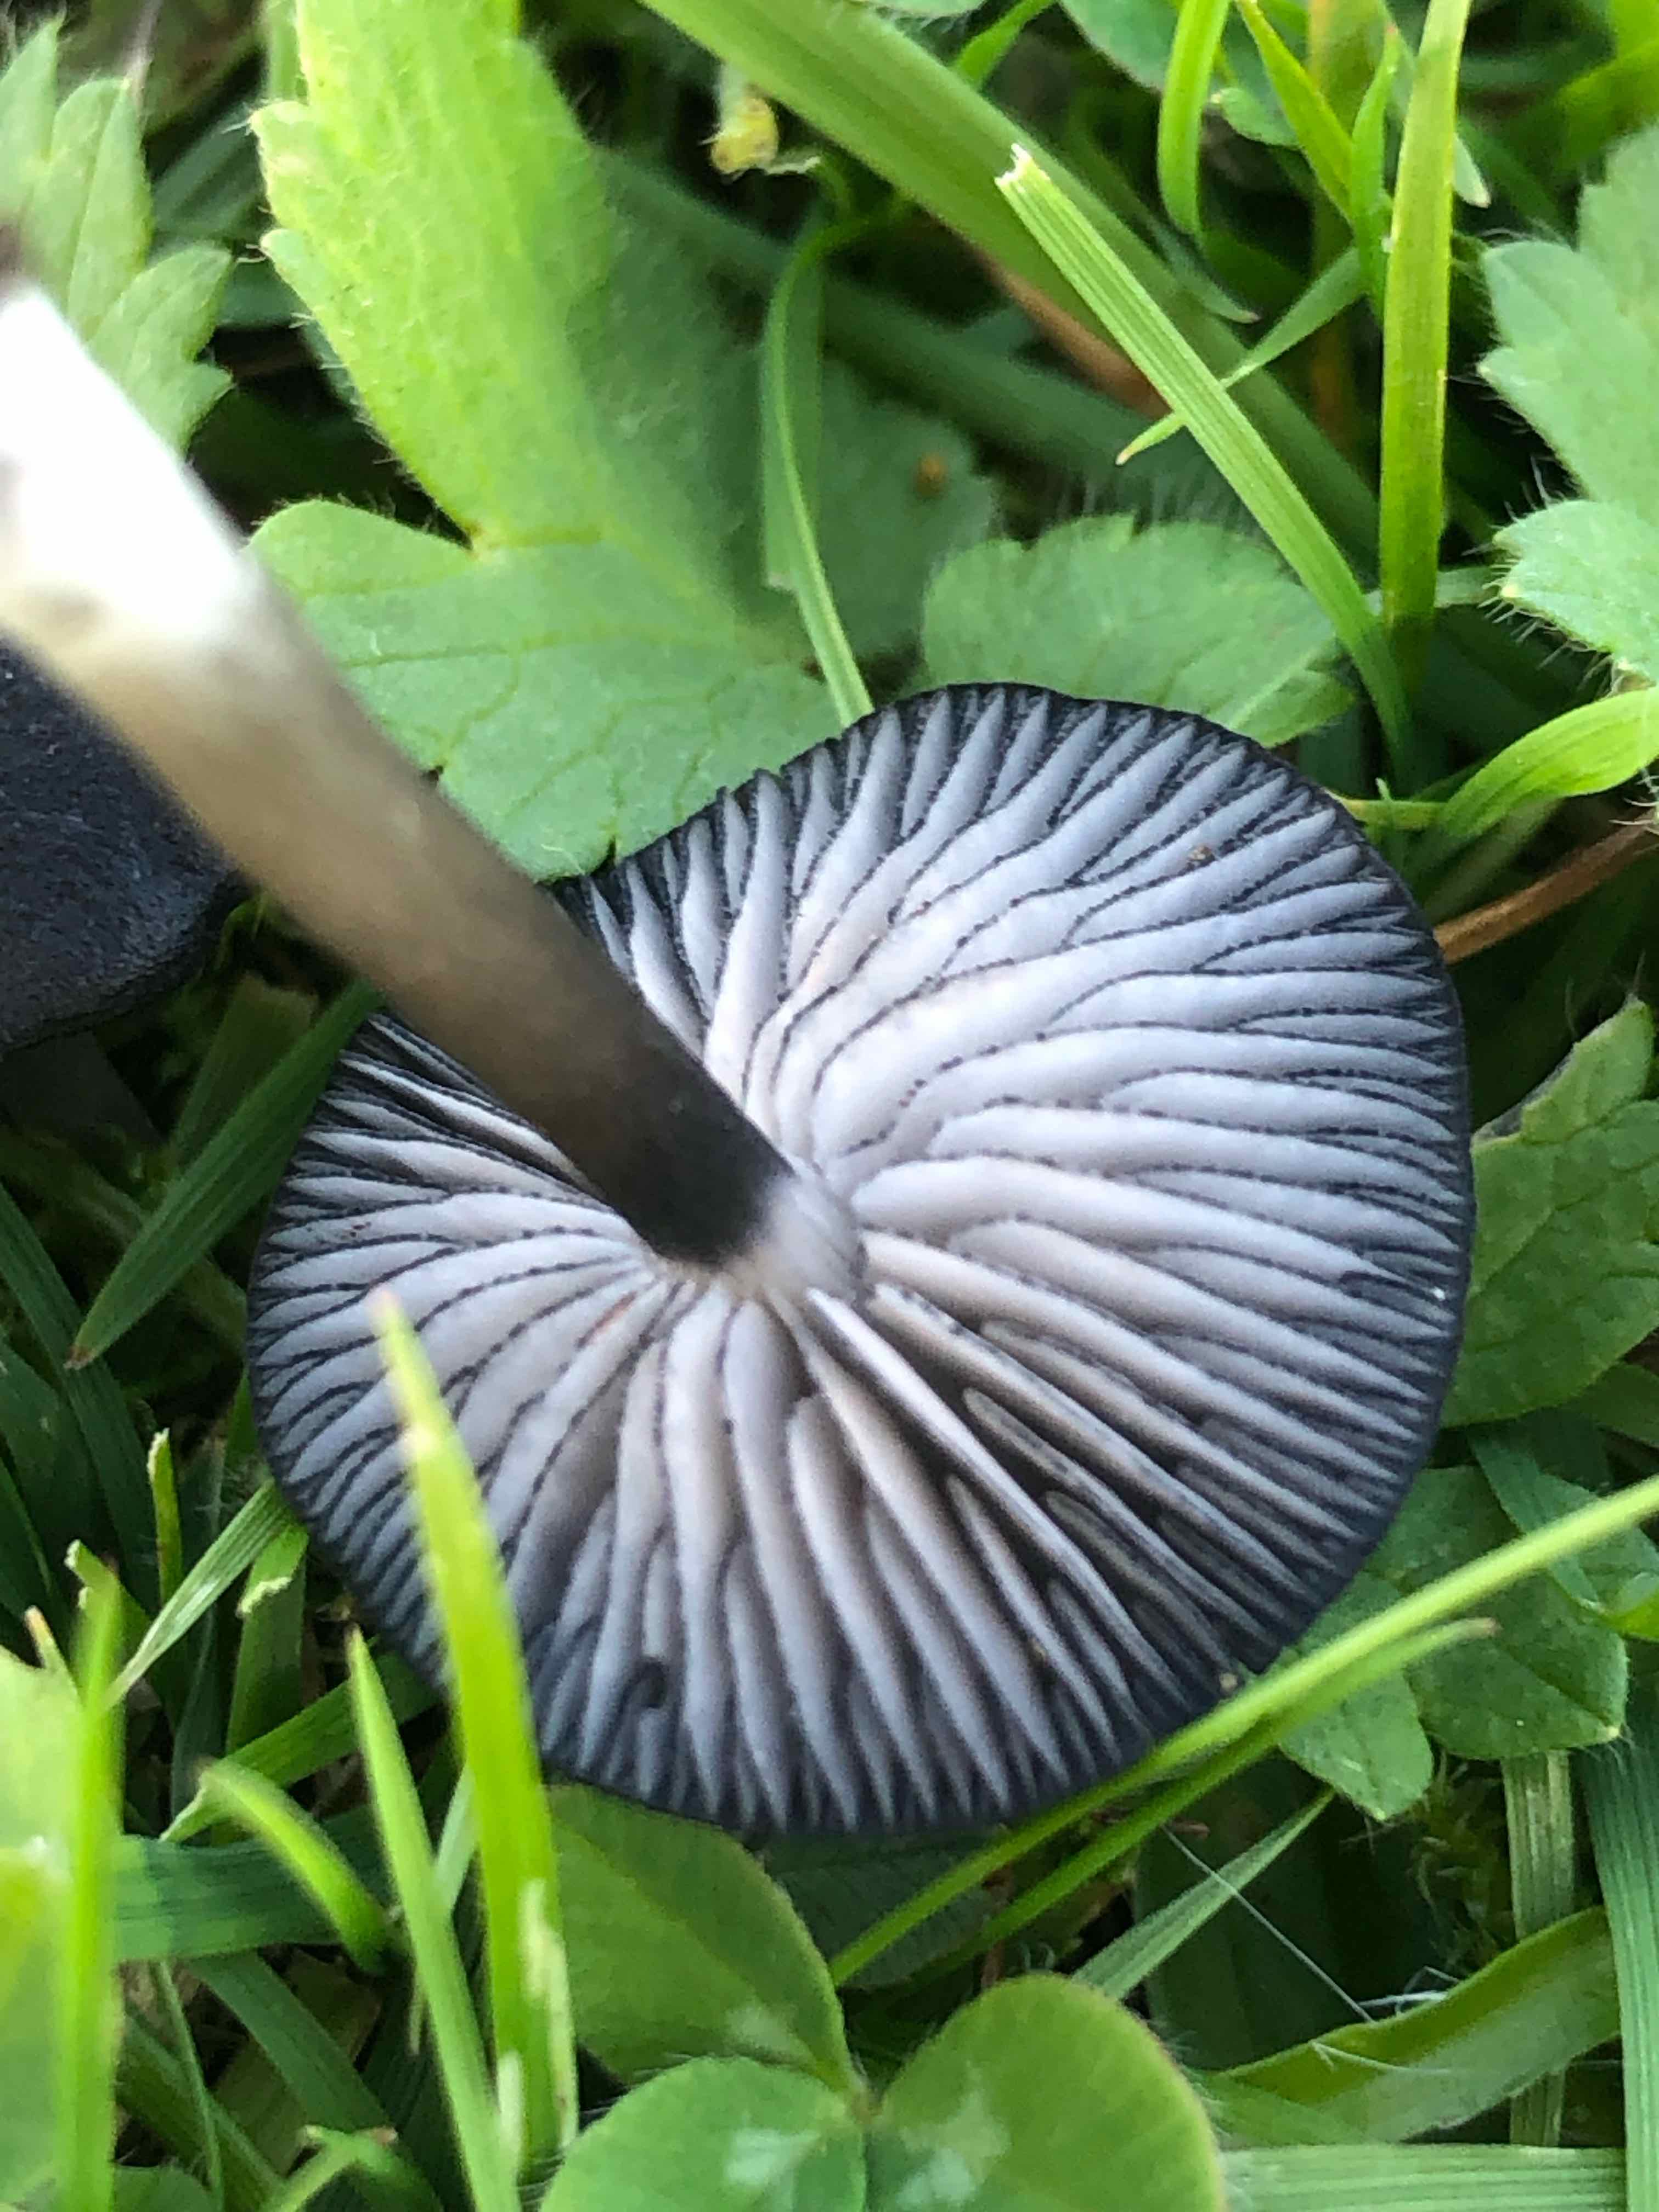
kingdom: Fungi
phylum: Basidiomycota
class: Agaricomycetes
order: Agaricales
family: Entolomataceae
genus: Entoloma
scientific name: Entoloma
